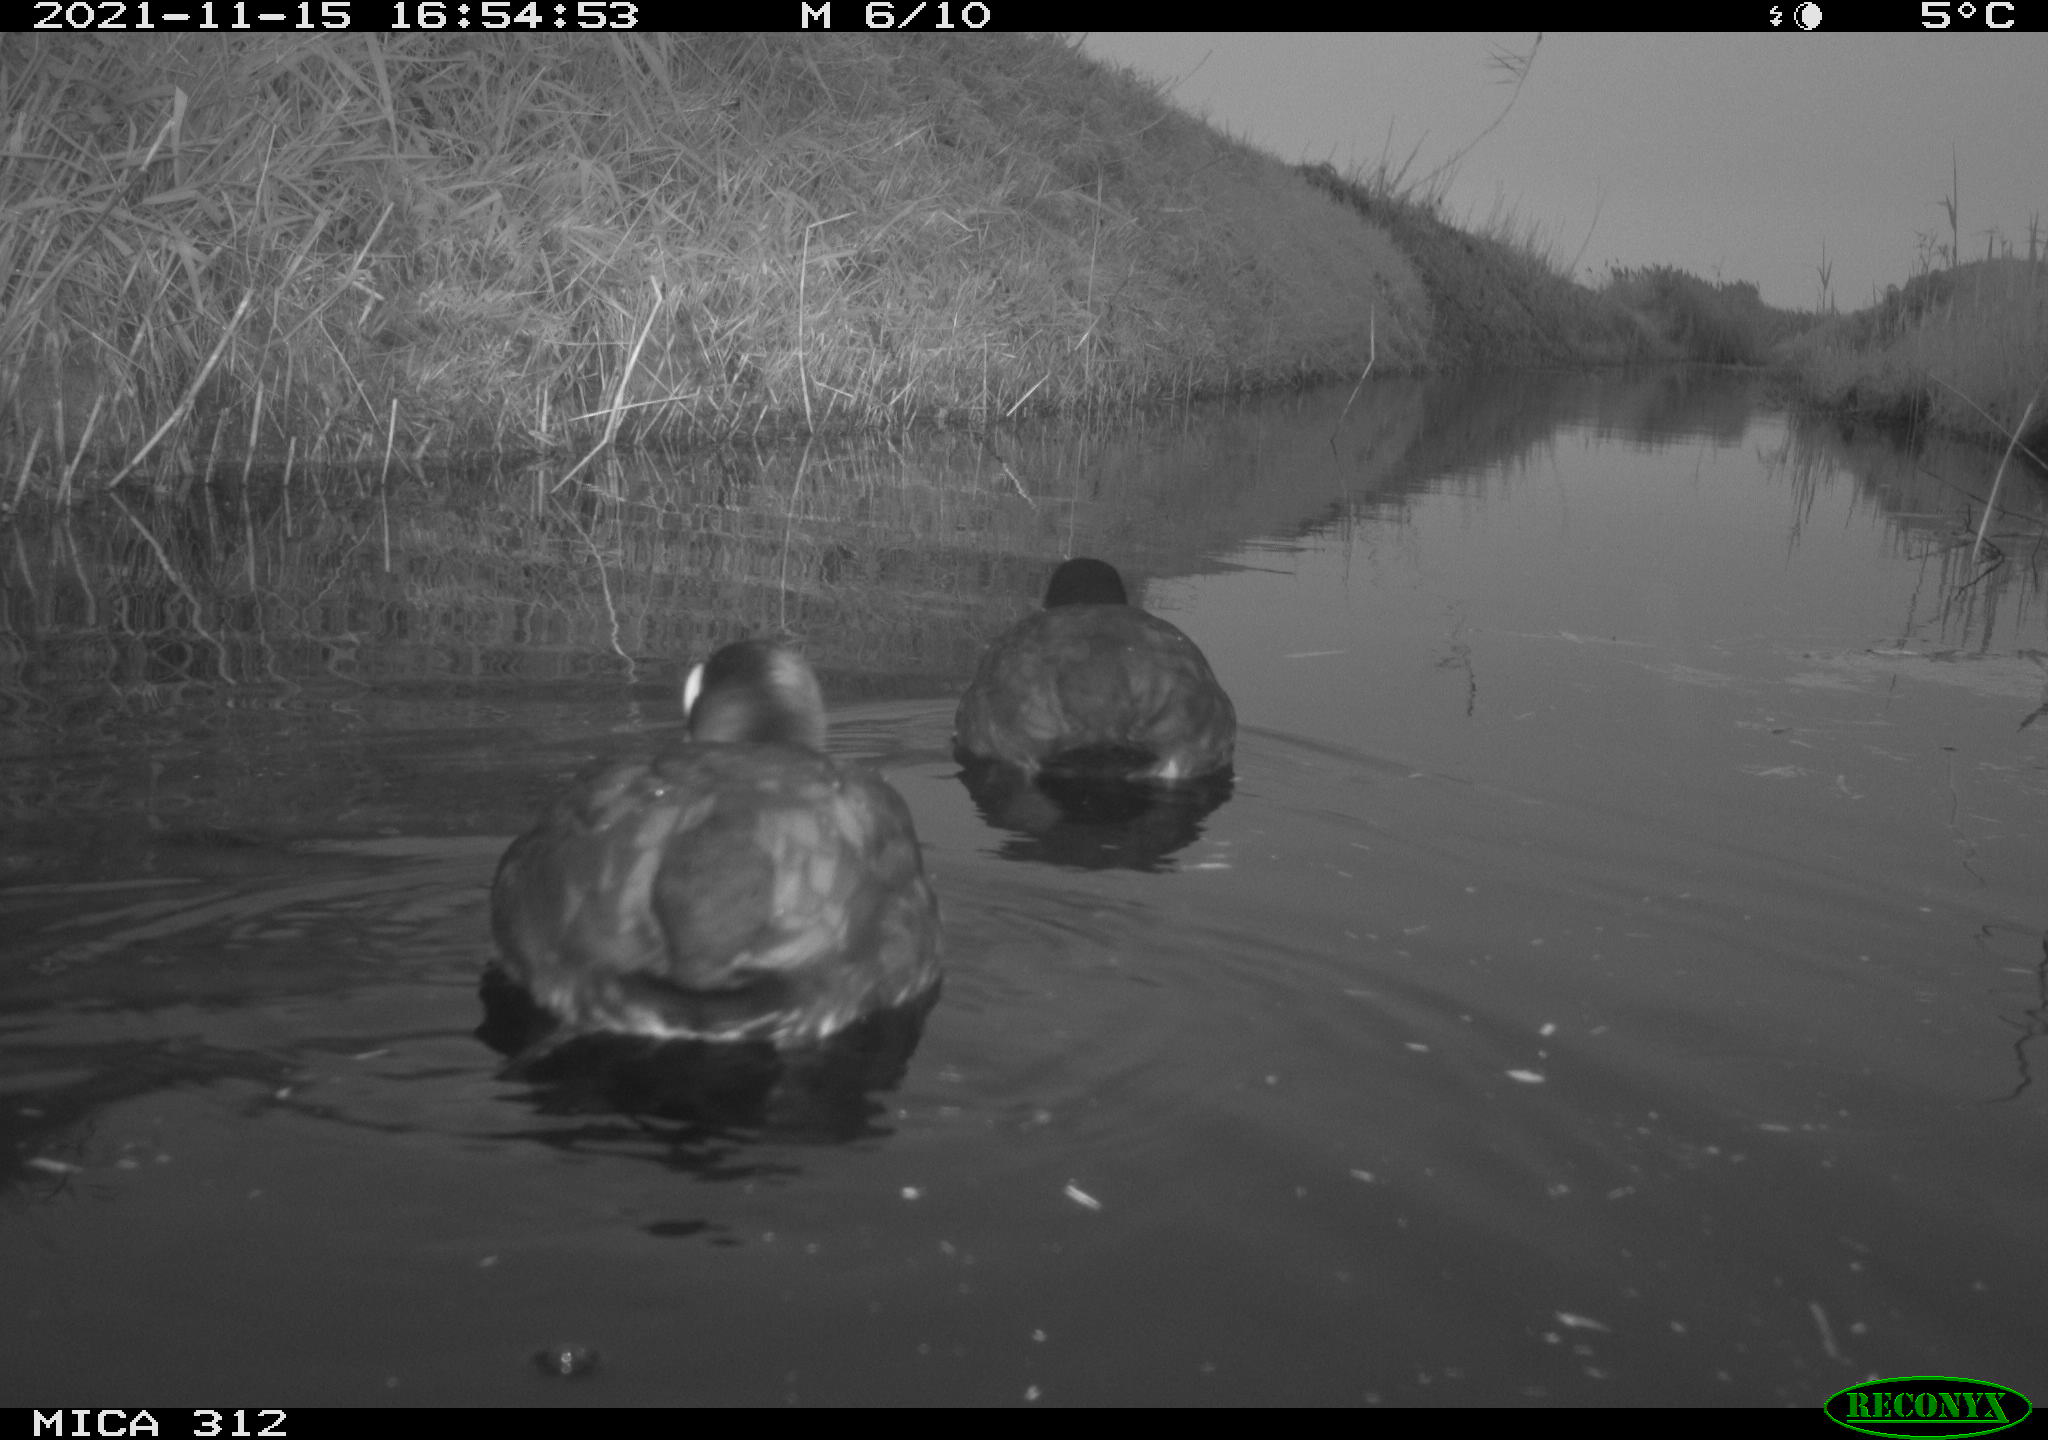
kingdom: Animalia
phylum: Chordata
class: Aves
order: Gruiformes
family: Rallidae
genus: Fulica
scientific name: Fulica atra
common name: Eurasian coot
